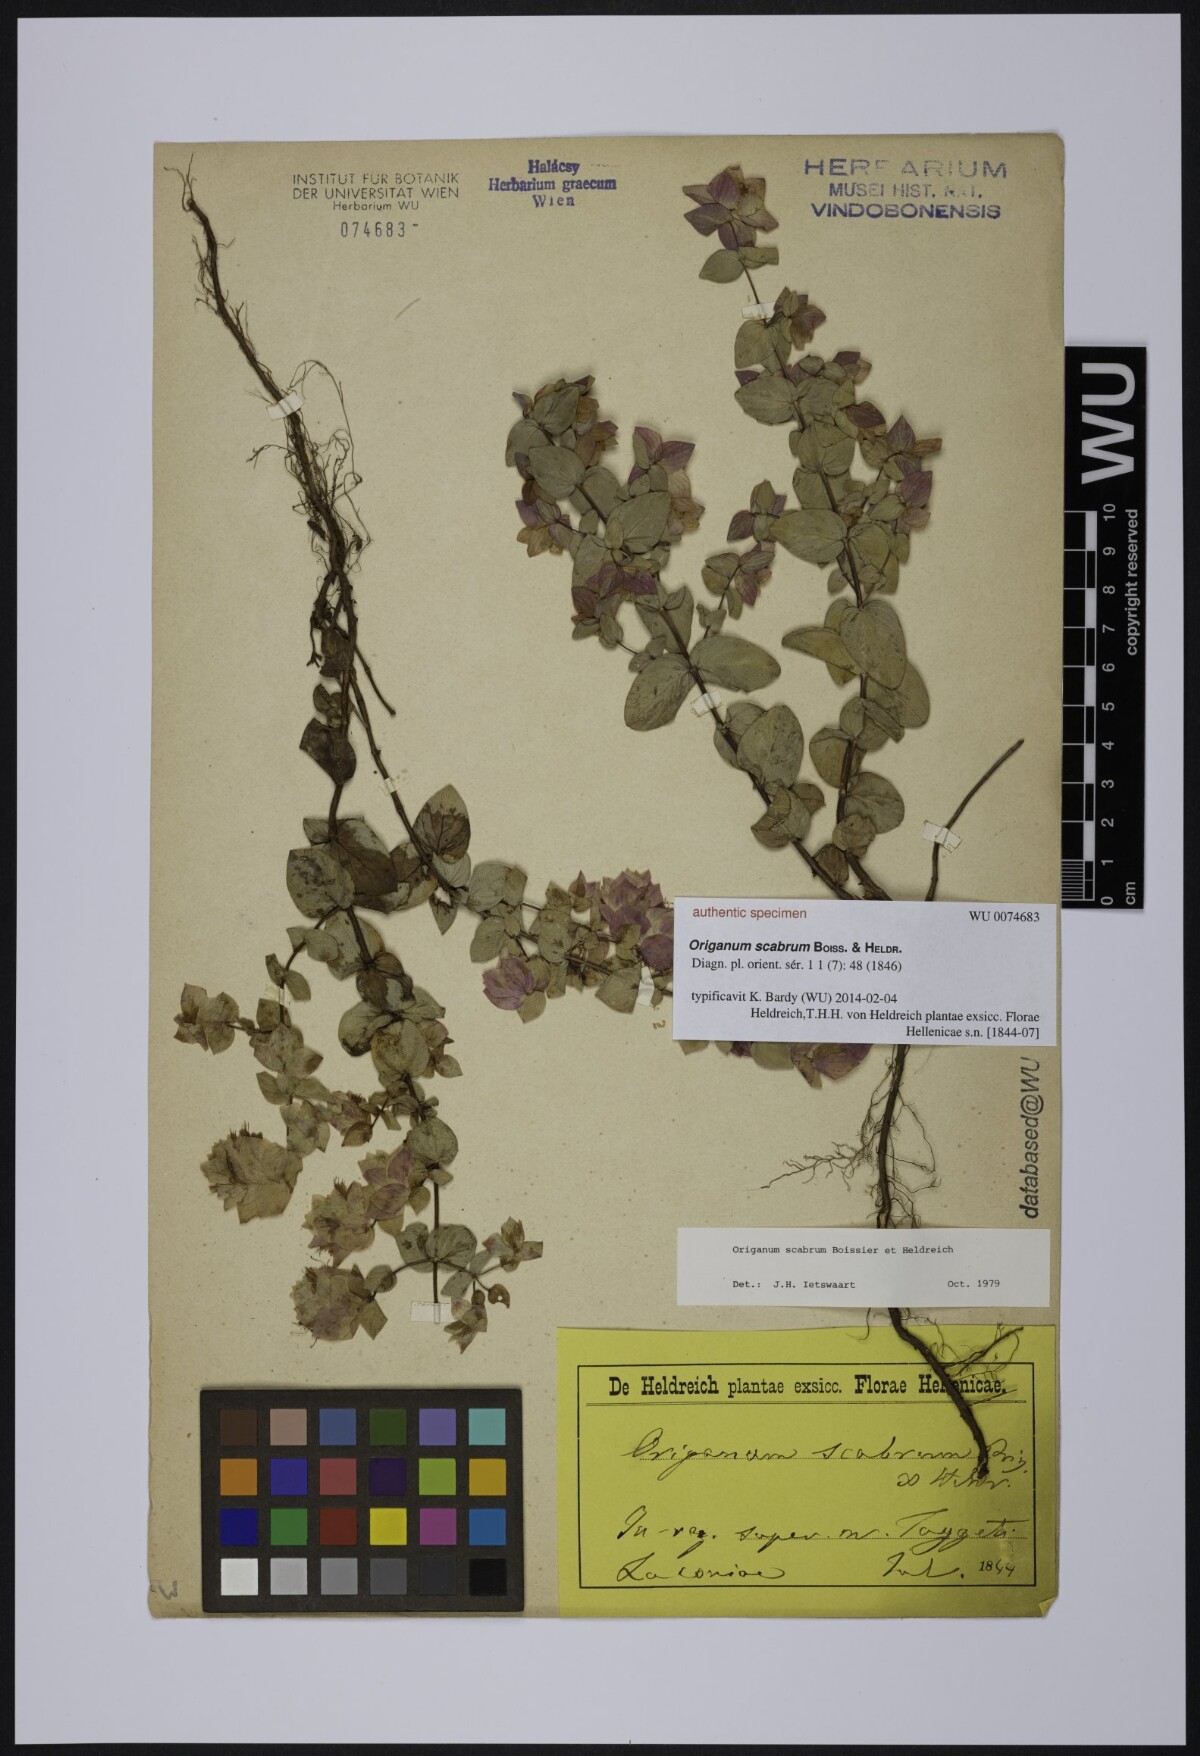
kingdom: Plantae
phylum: Tracheophyta
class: Magnoliopsida
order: Lamiales
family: Lamiaceae
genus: Origanum
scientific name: Origanum scabrum
